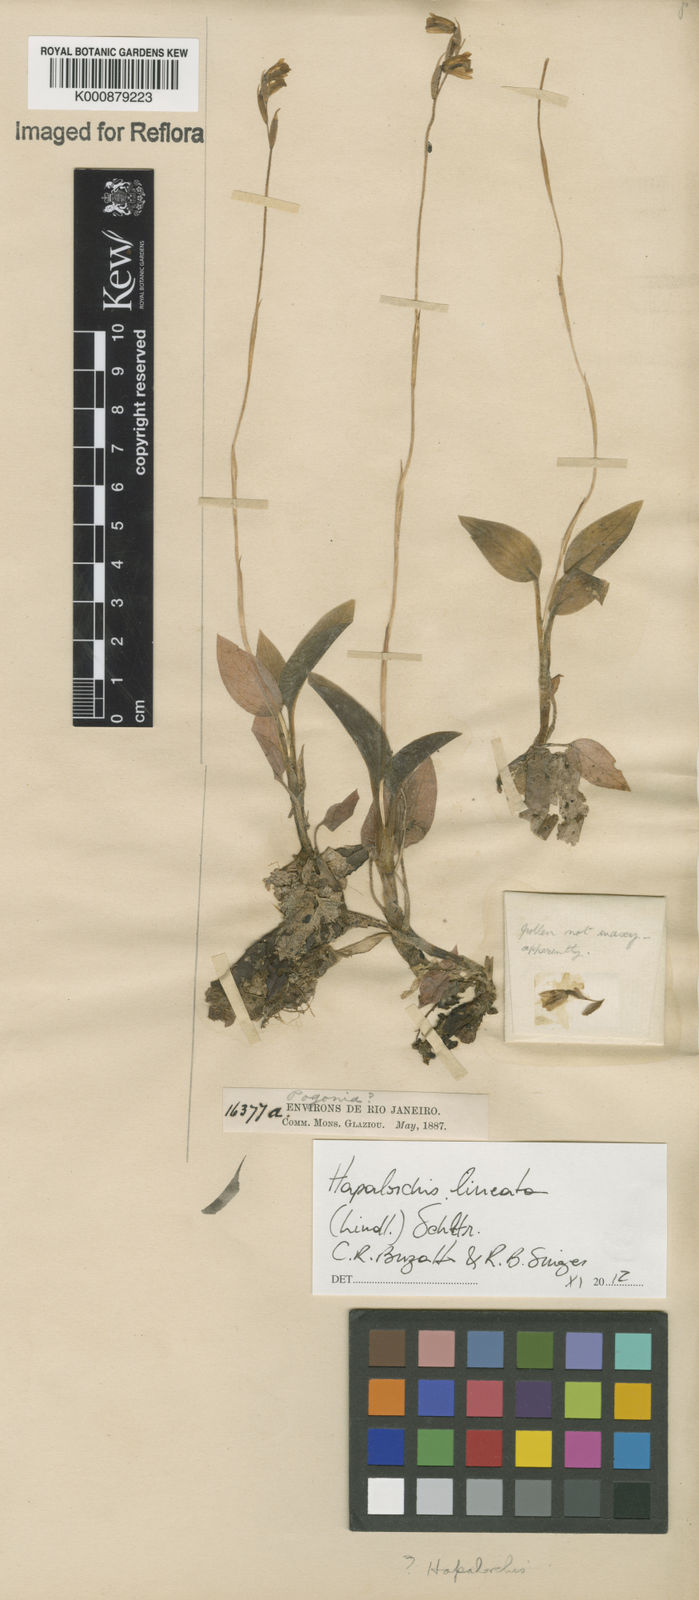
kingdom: Plantae
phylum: Tracheophyta
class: Liliopsida
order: Asparagales
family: Orchidaceae
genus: Hapalorchis
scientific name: Hapalorchis lineata
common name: Tropical ladies'-tresses
